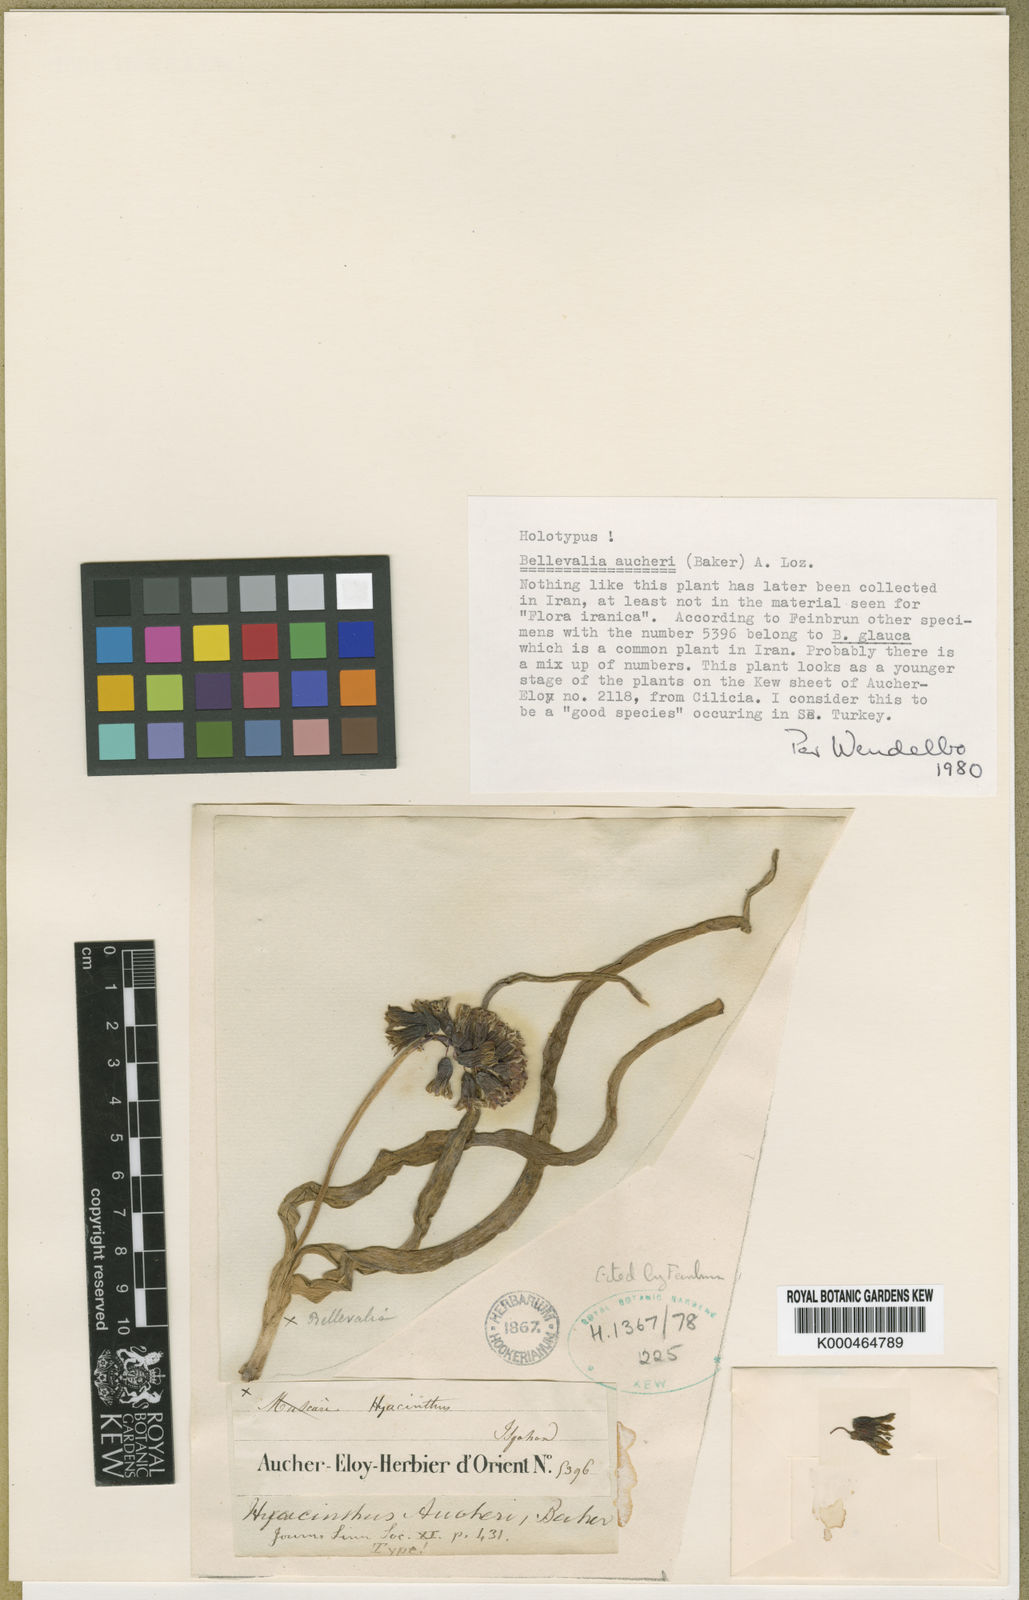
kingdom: Plantae
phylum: Tracheophyta
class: Liliopsida
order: Asparagales
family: Asparagaceae
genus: Bellevalia
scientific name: Bellevalia aucheri
